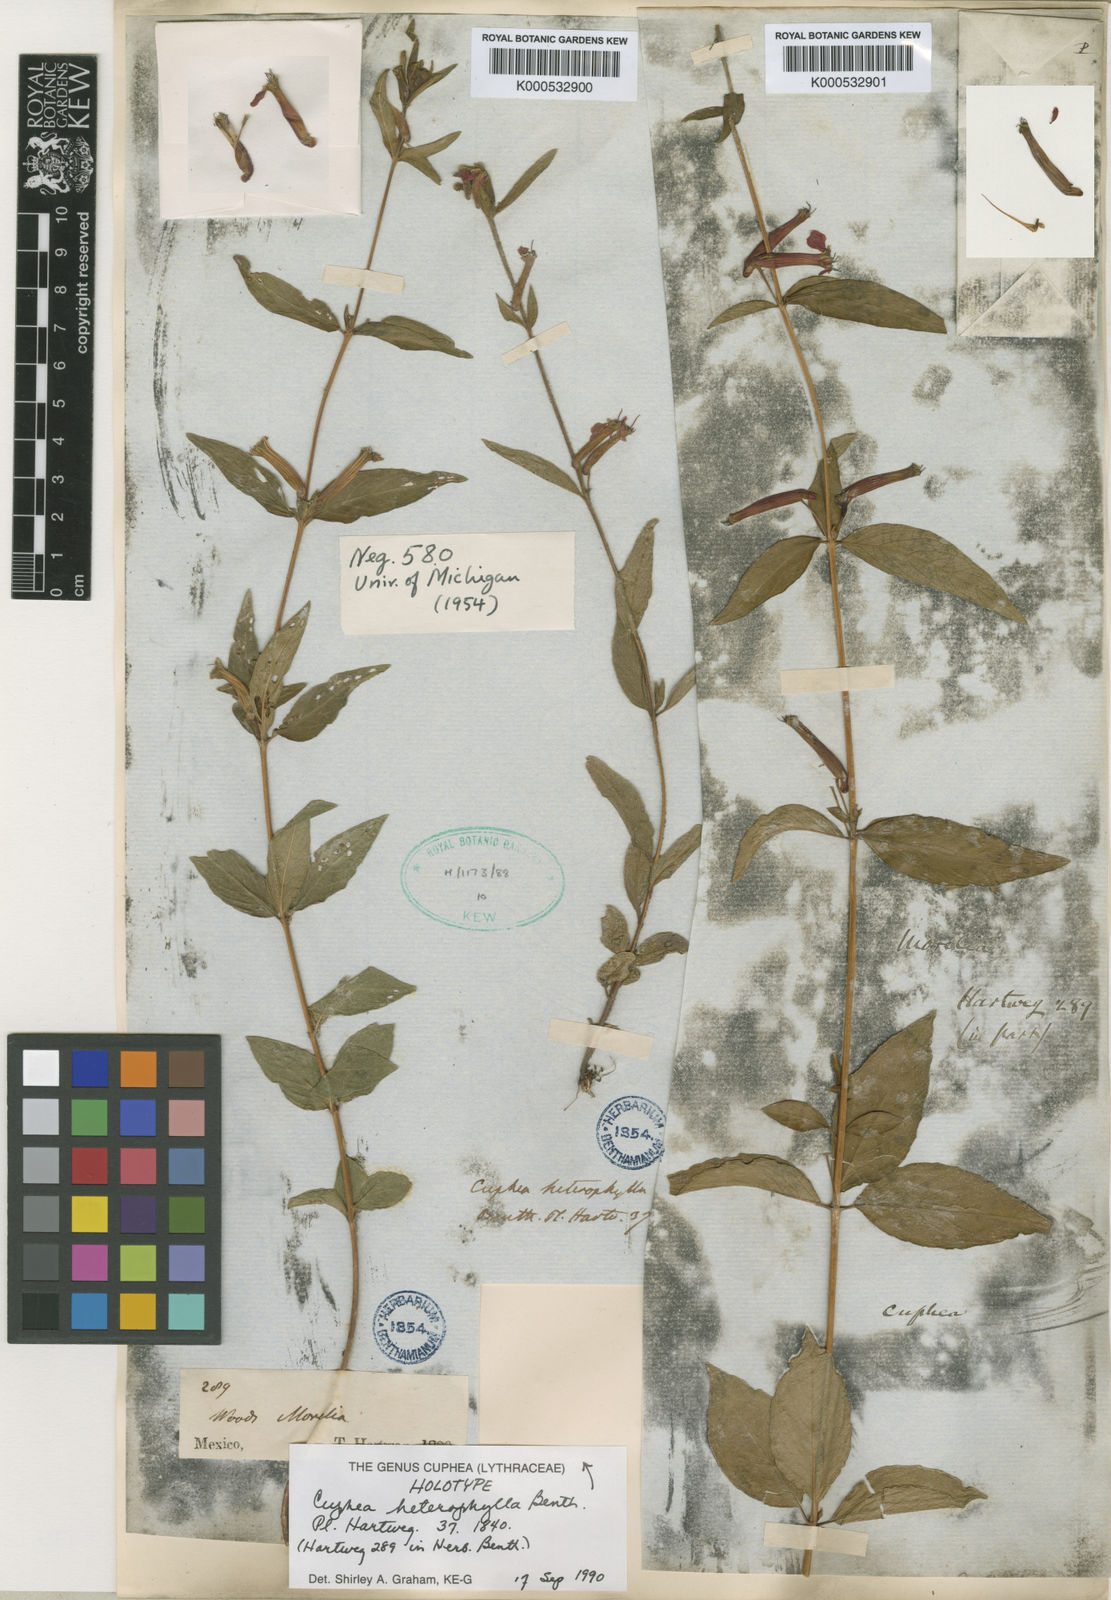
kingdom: Plantae
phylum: Tracheophyta
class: Magnoliopsida
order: Myrtales
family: Lythraceae
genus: Cuphea
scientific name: Cuphea heterophylla
